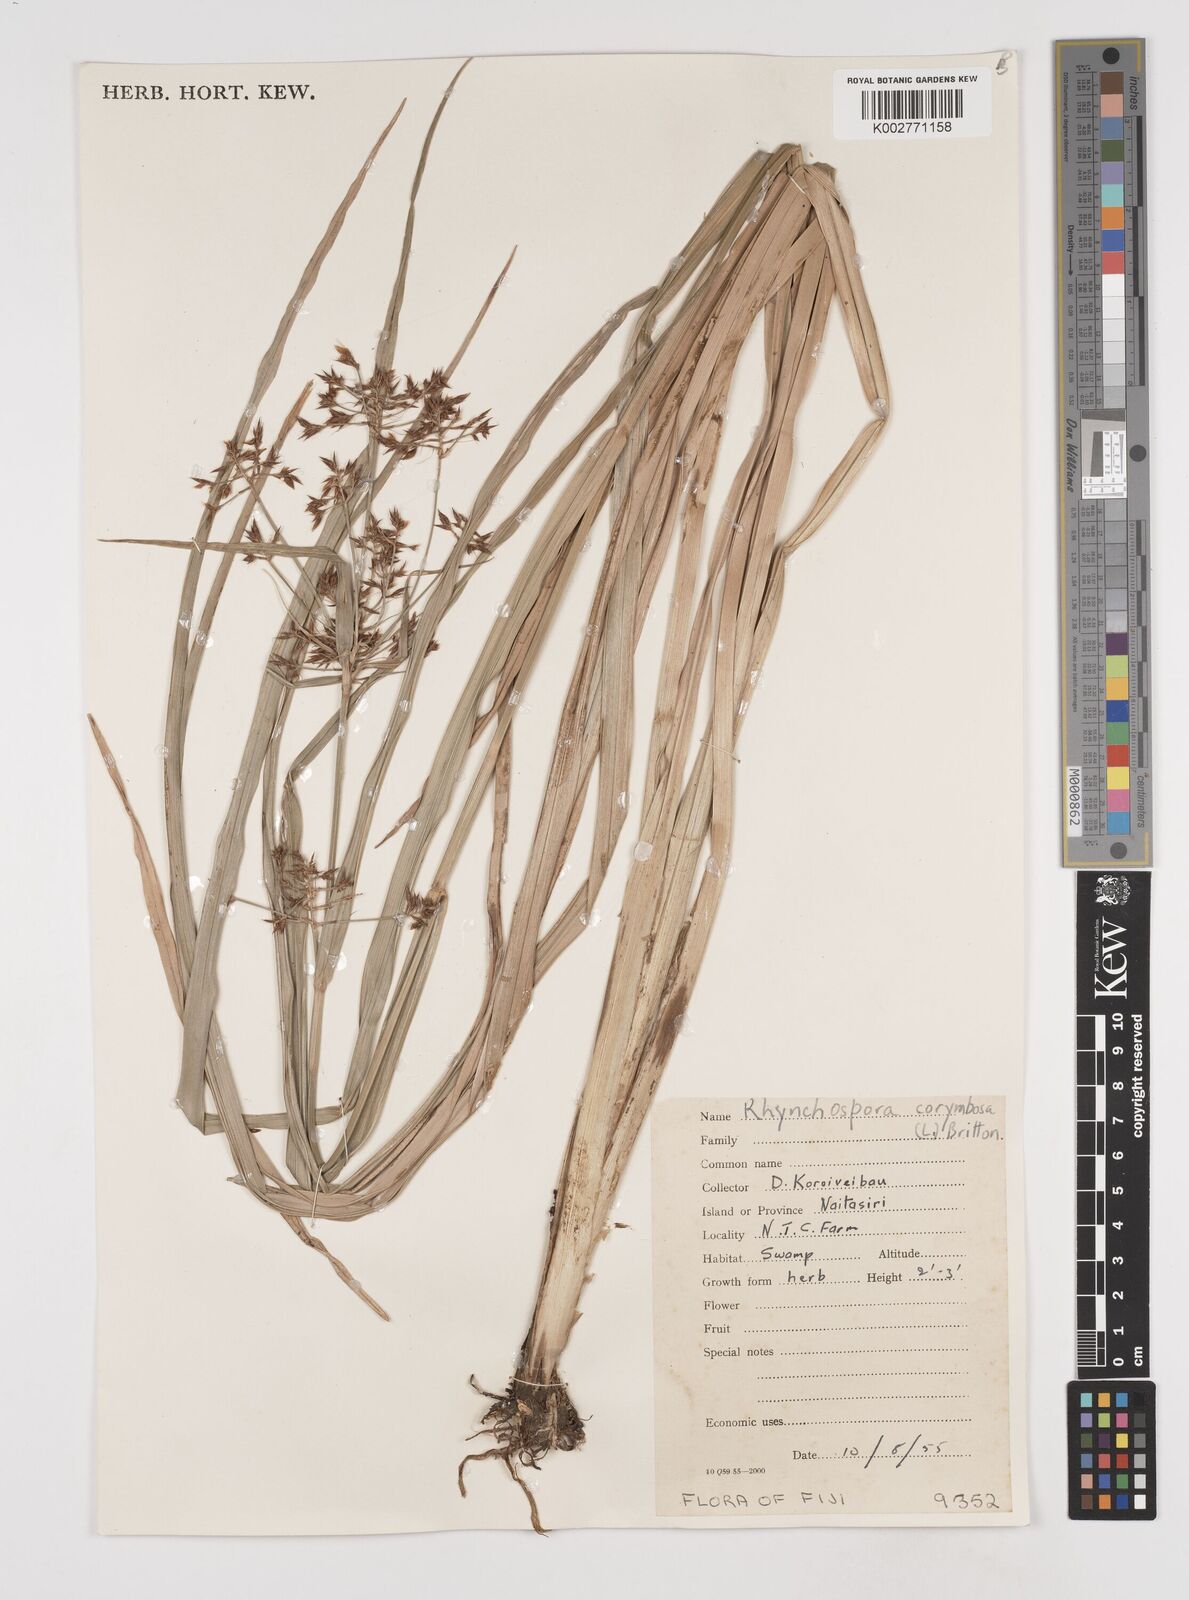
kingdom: Plantae
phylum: Tracheophyta
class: Liliopsida
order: Poales
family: Cyperaceae
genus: Rhynchospora
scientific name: Rhynchospora corymbosa
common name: Golden beak sedge
